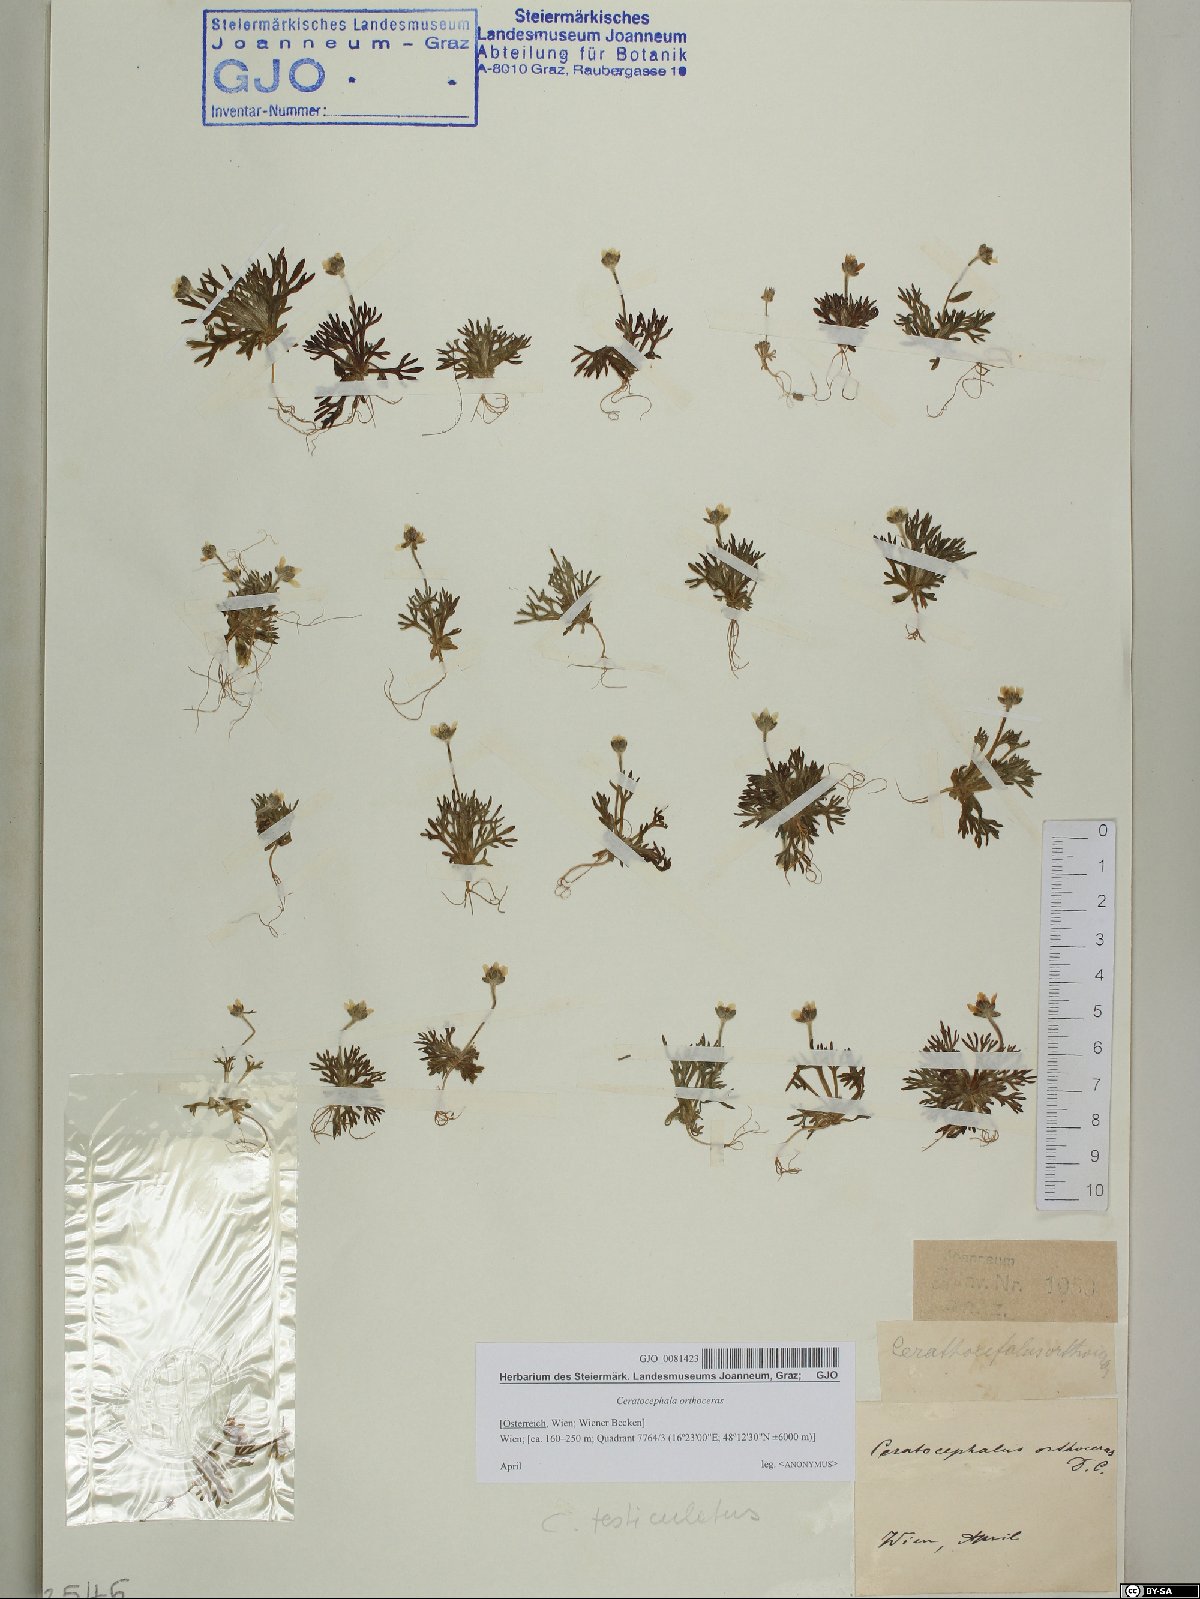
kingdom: Plantae
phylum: Tracheophyta
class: Magnoliopsida
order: Ranunculales
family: Ranunculaceae
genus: Ceratocephala
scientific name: Ceratocephala orthoceras
